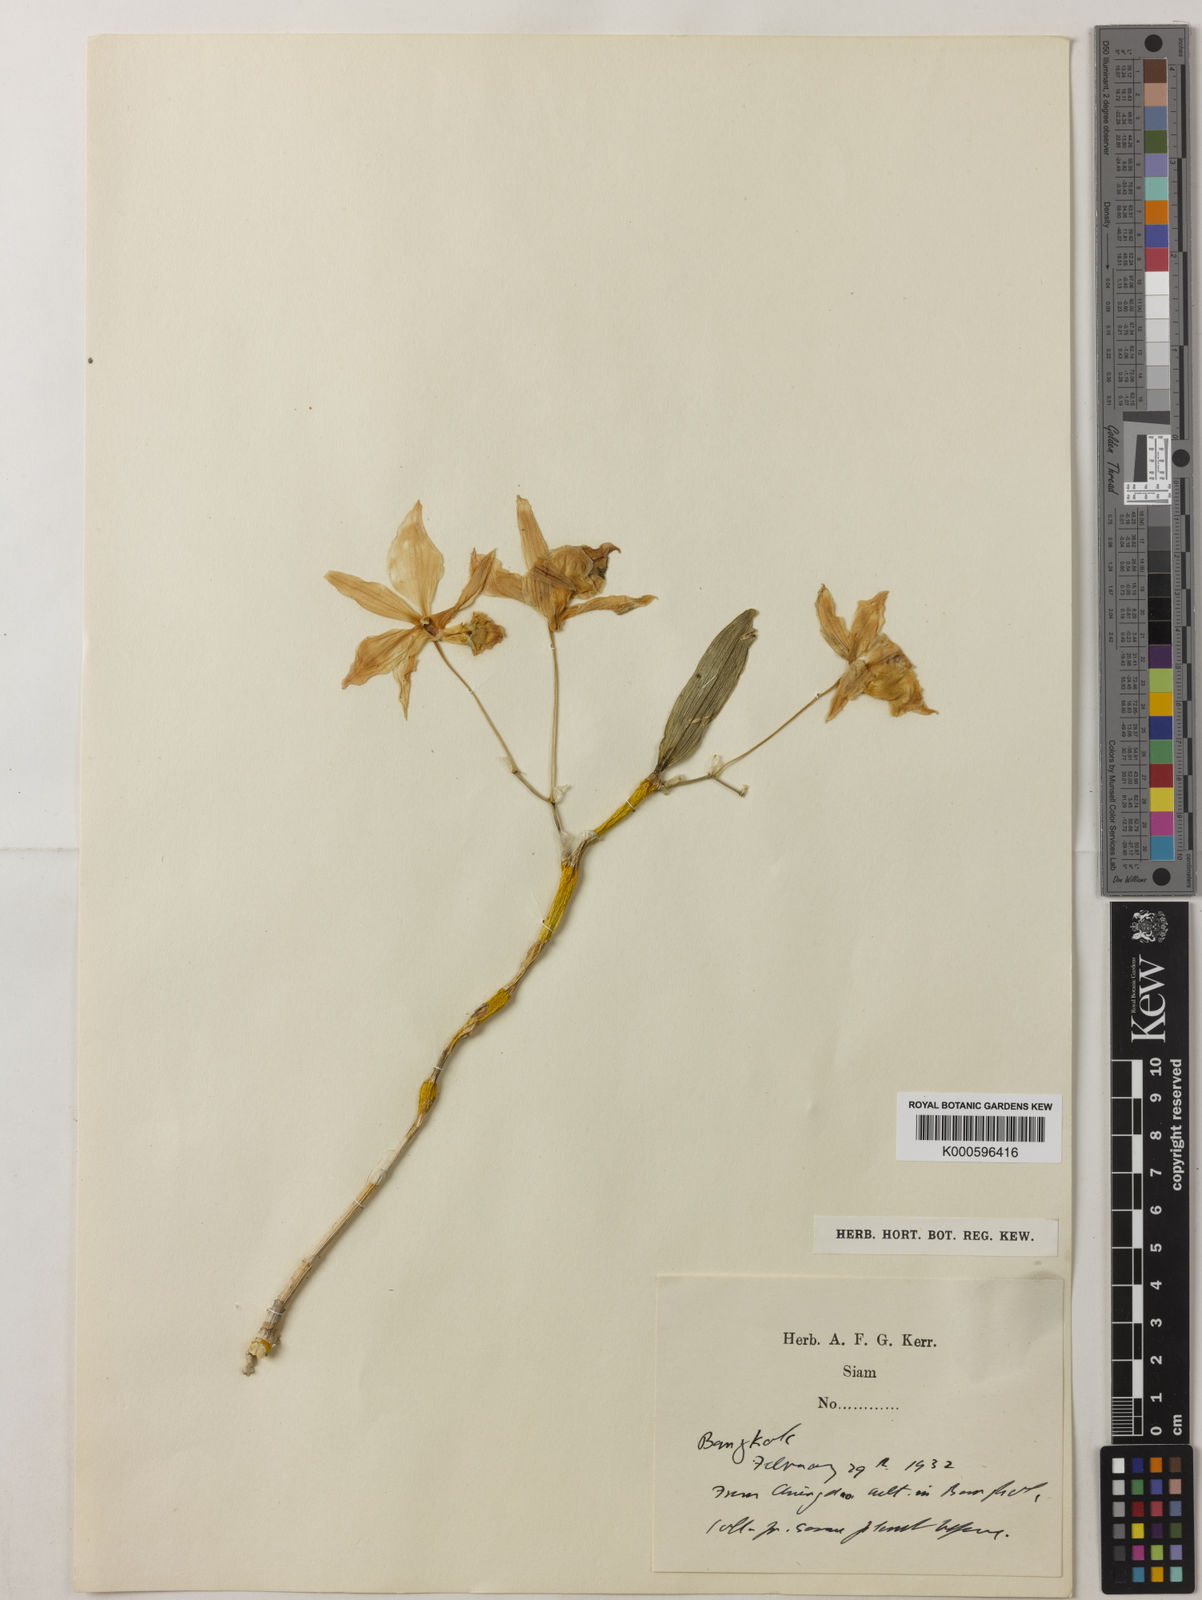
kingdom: Plantae
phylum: Tracheophyta
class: Liliopsida
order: Asparagales
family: Orchidaceae
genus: Dendrobium
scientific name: Dendrobium findlayanum
